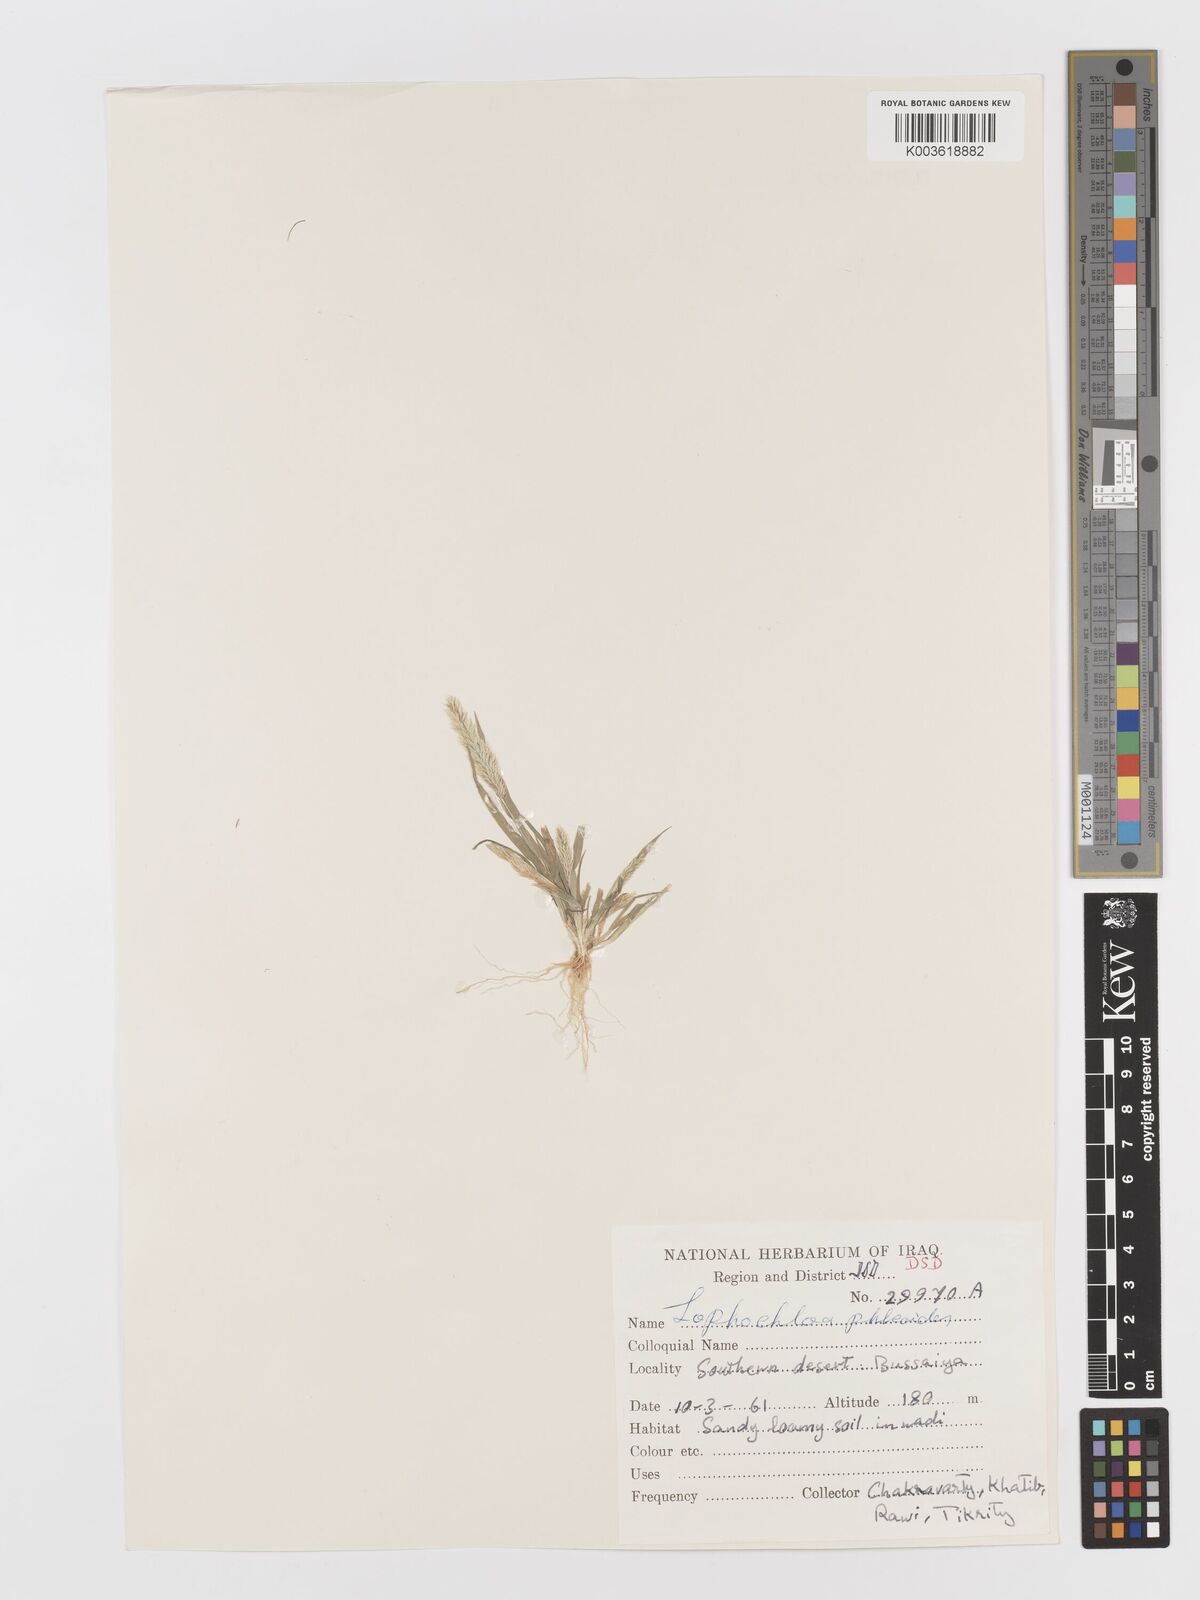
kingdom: Plantae
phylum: Tracheophyta
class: Liliopsida
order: Poales
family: Poaceae
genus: Rostraria
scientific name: Rostraria cristata
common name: Mediterranean hair-grass
